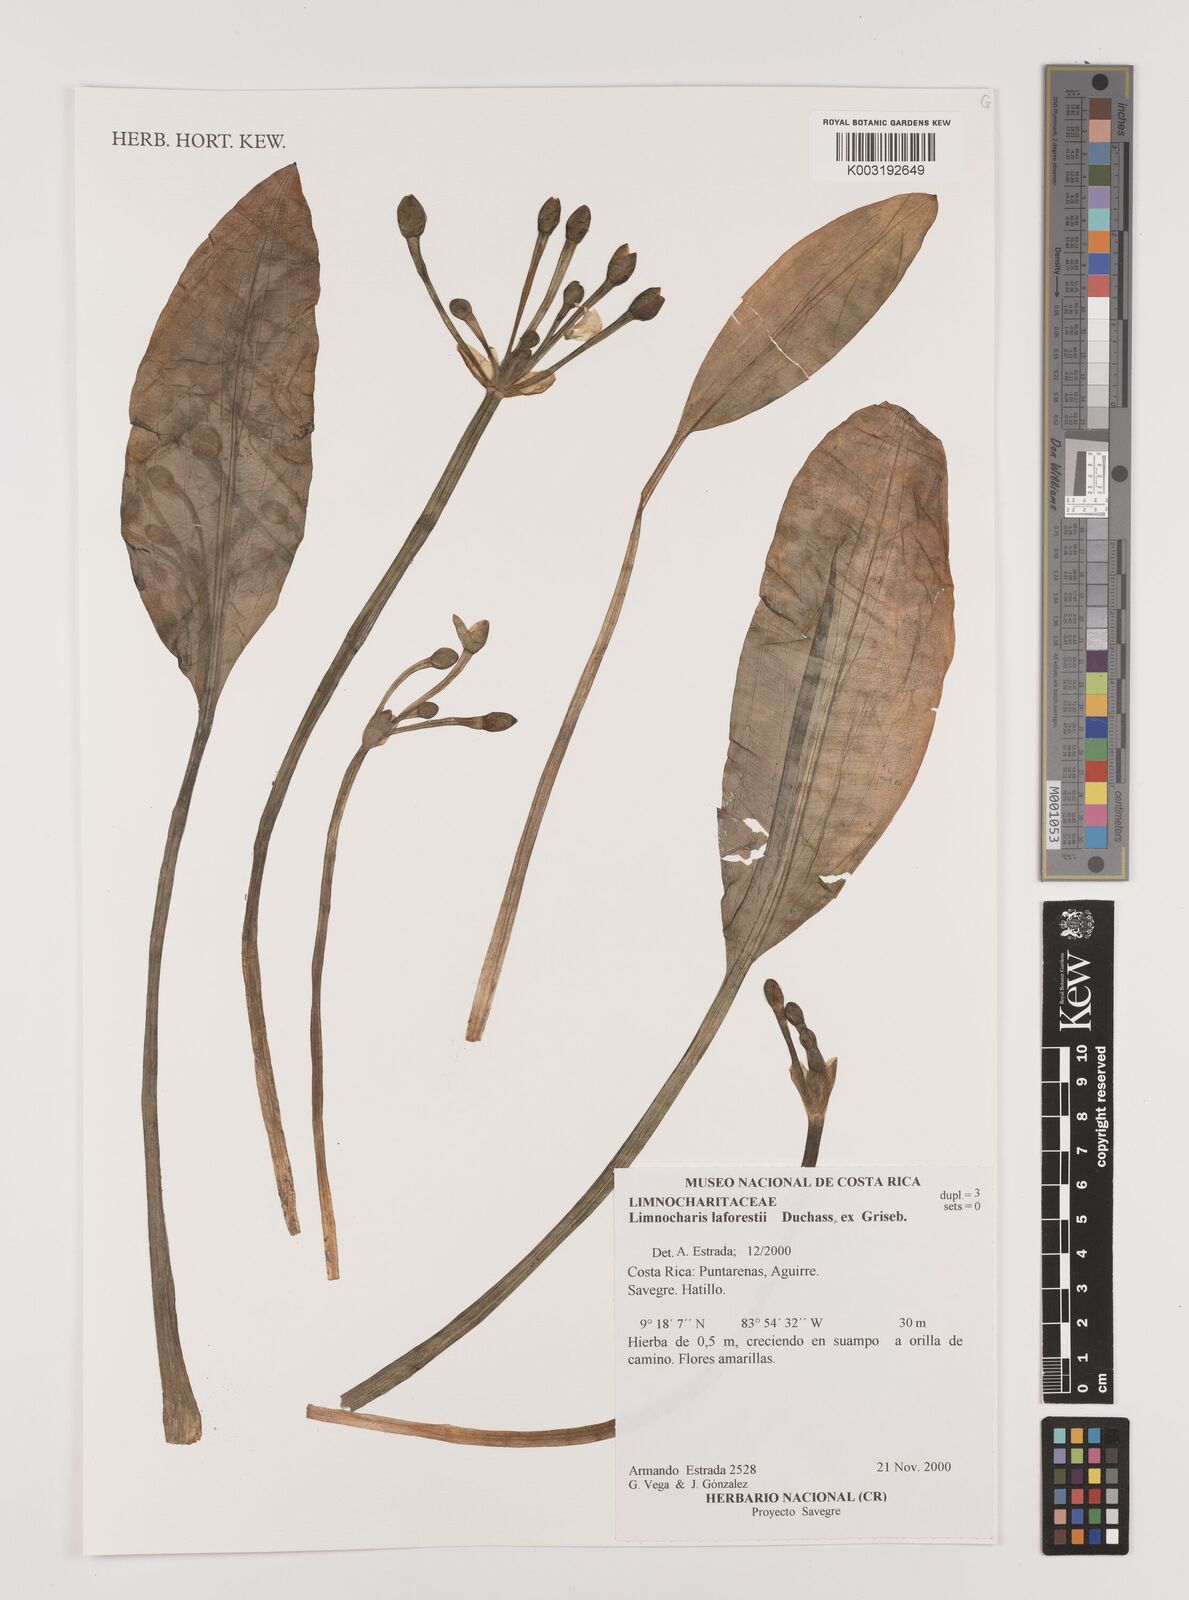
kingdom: Plantae
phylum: Tracheophyta
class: Liliopsida
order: Alismatales
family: Alismataceae
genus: Limnocharis
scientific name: Limnocharis laforestii
